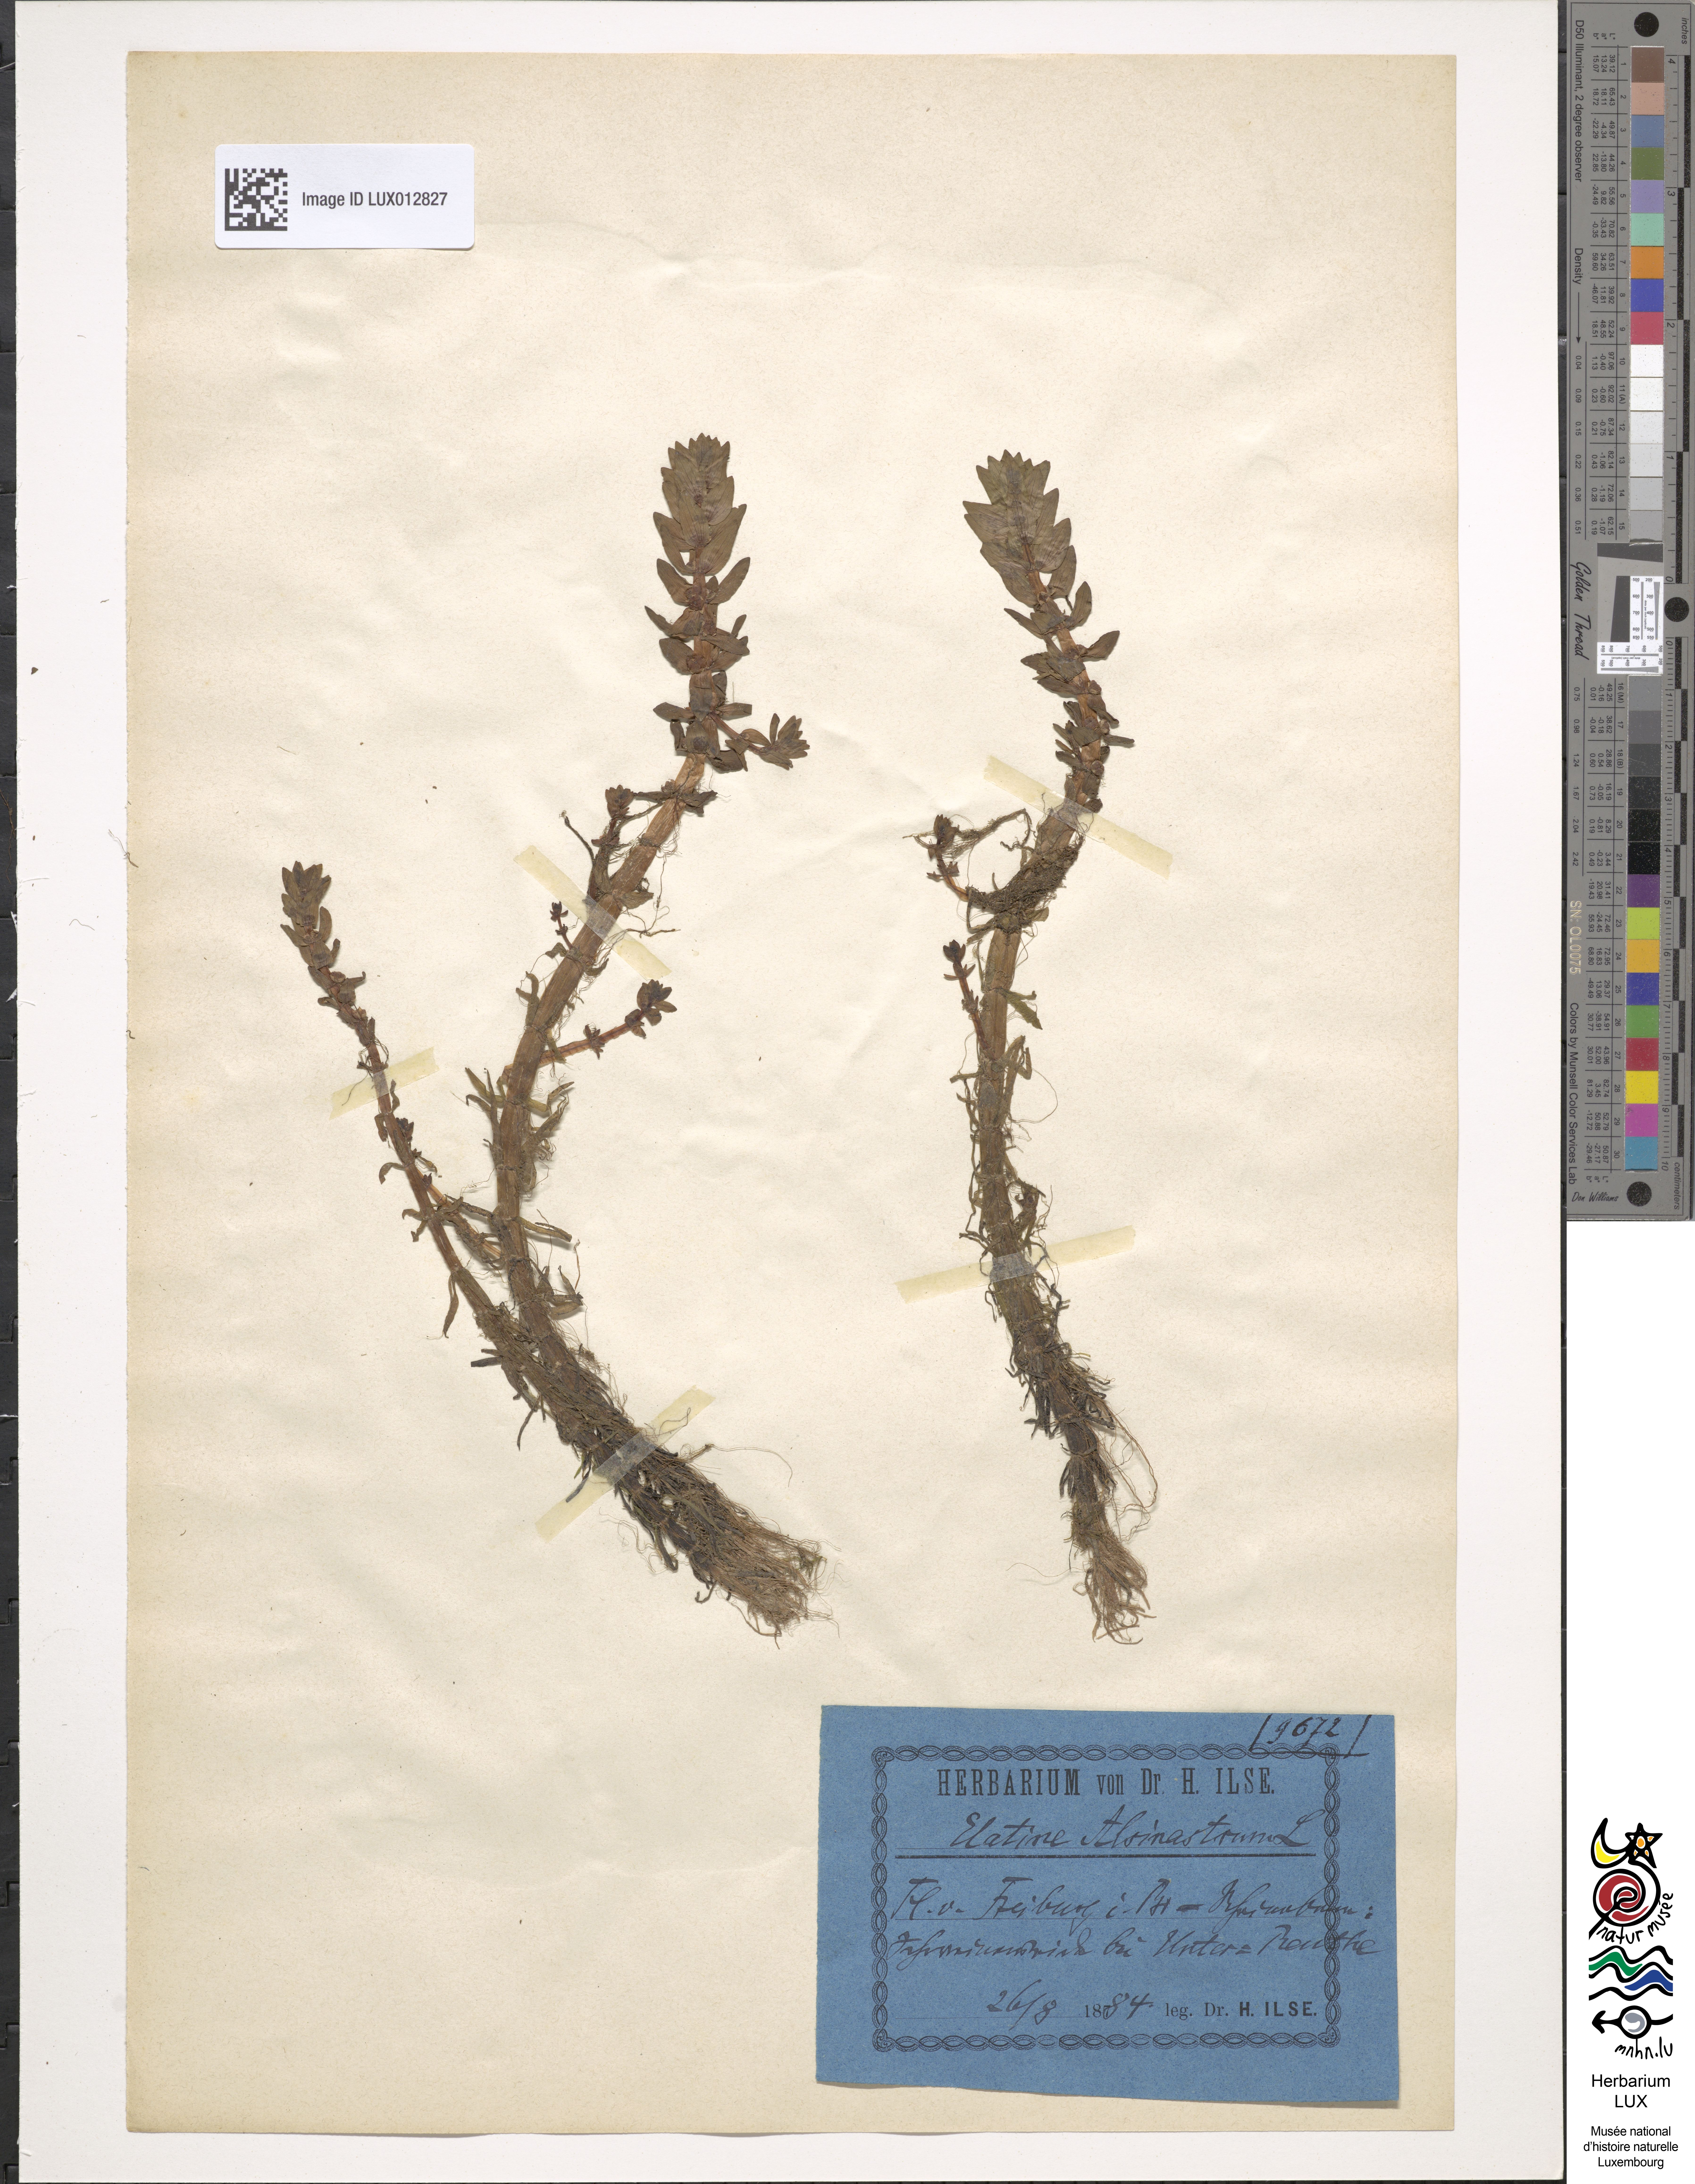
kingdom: Plantae
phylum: Tracheophyta
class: Magnoliopsida
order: Malpighiales
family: Elatinaceae
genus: Elatine
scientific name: Elatine alsinastrum
